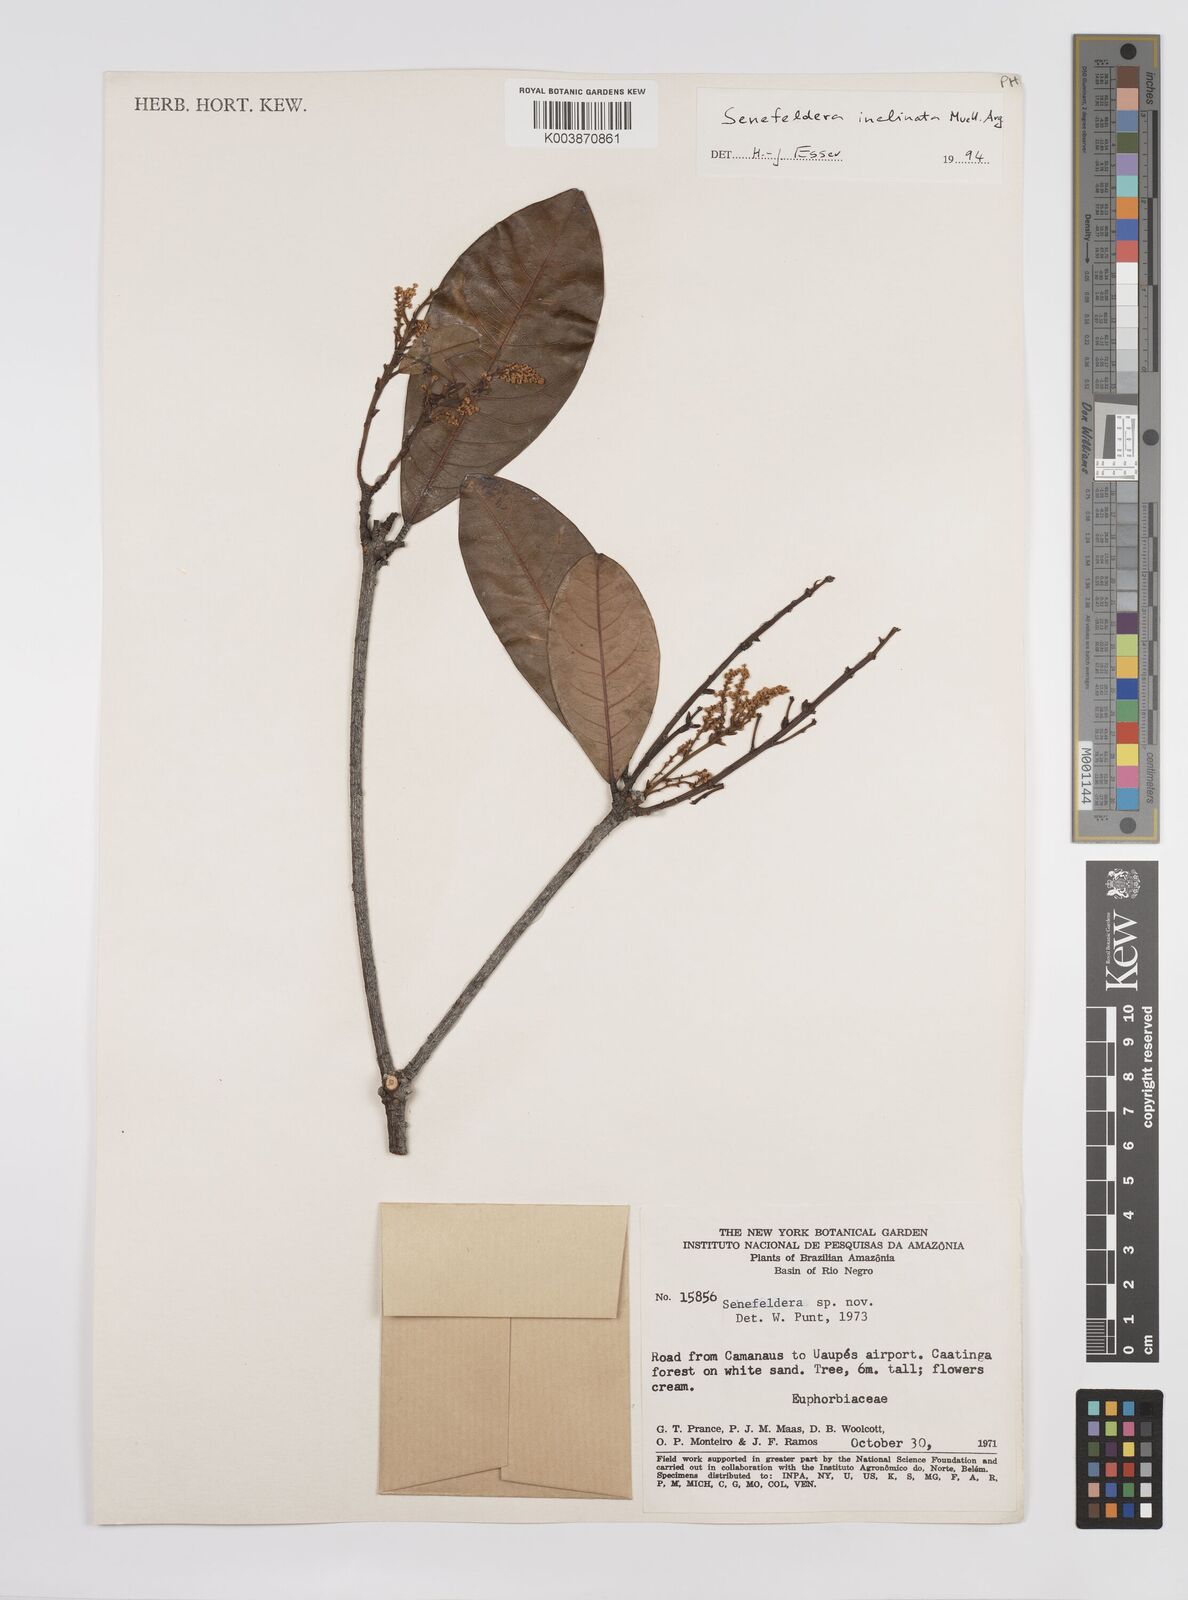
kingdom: Plantae
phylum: Tracheophyta
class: Magnoliopsida
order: Malpighiales
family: Euphorbiaceae
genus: Pseudosenefeldera
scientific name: Pseudosenefeldera inclinata
